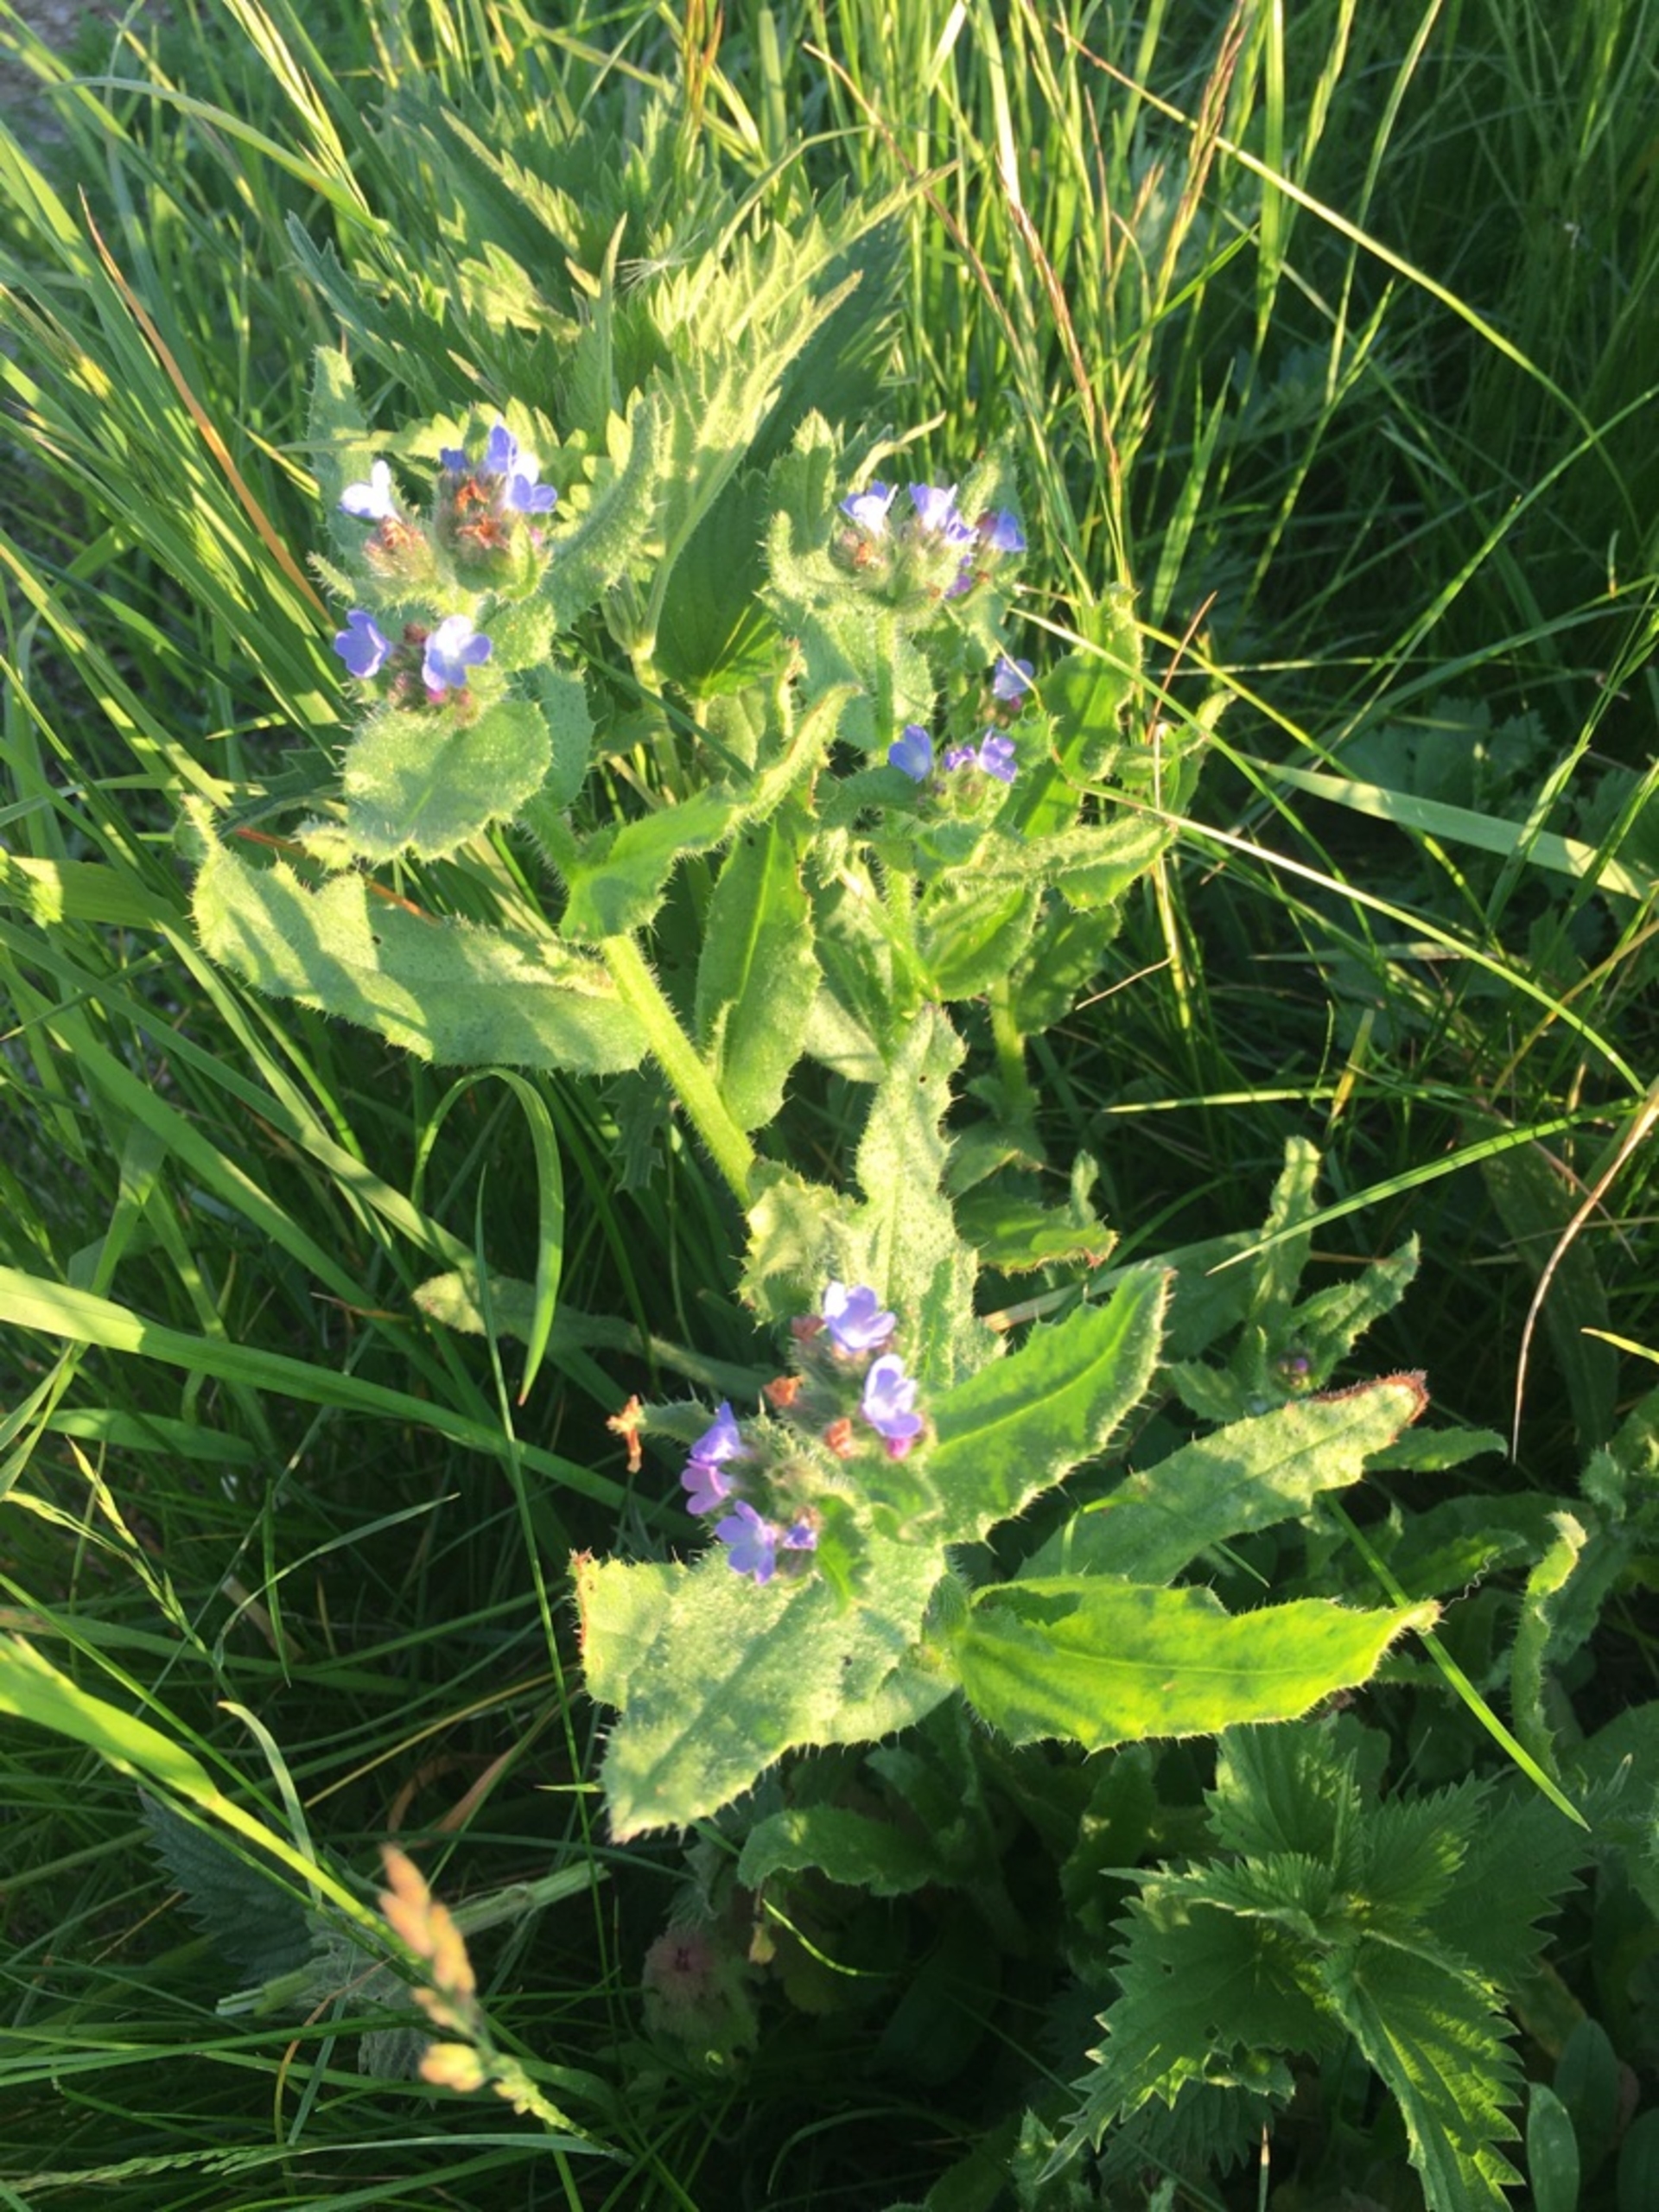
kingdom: Plantae
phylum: Tracheophyta
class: Magnoliopsida
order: Boraginales
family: Boraginaceae
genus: Lycopsis
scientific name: Lycopsis arvensis
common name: Krumhals
